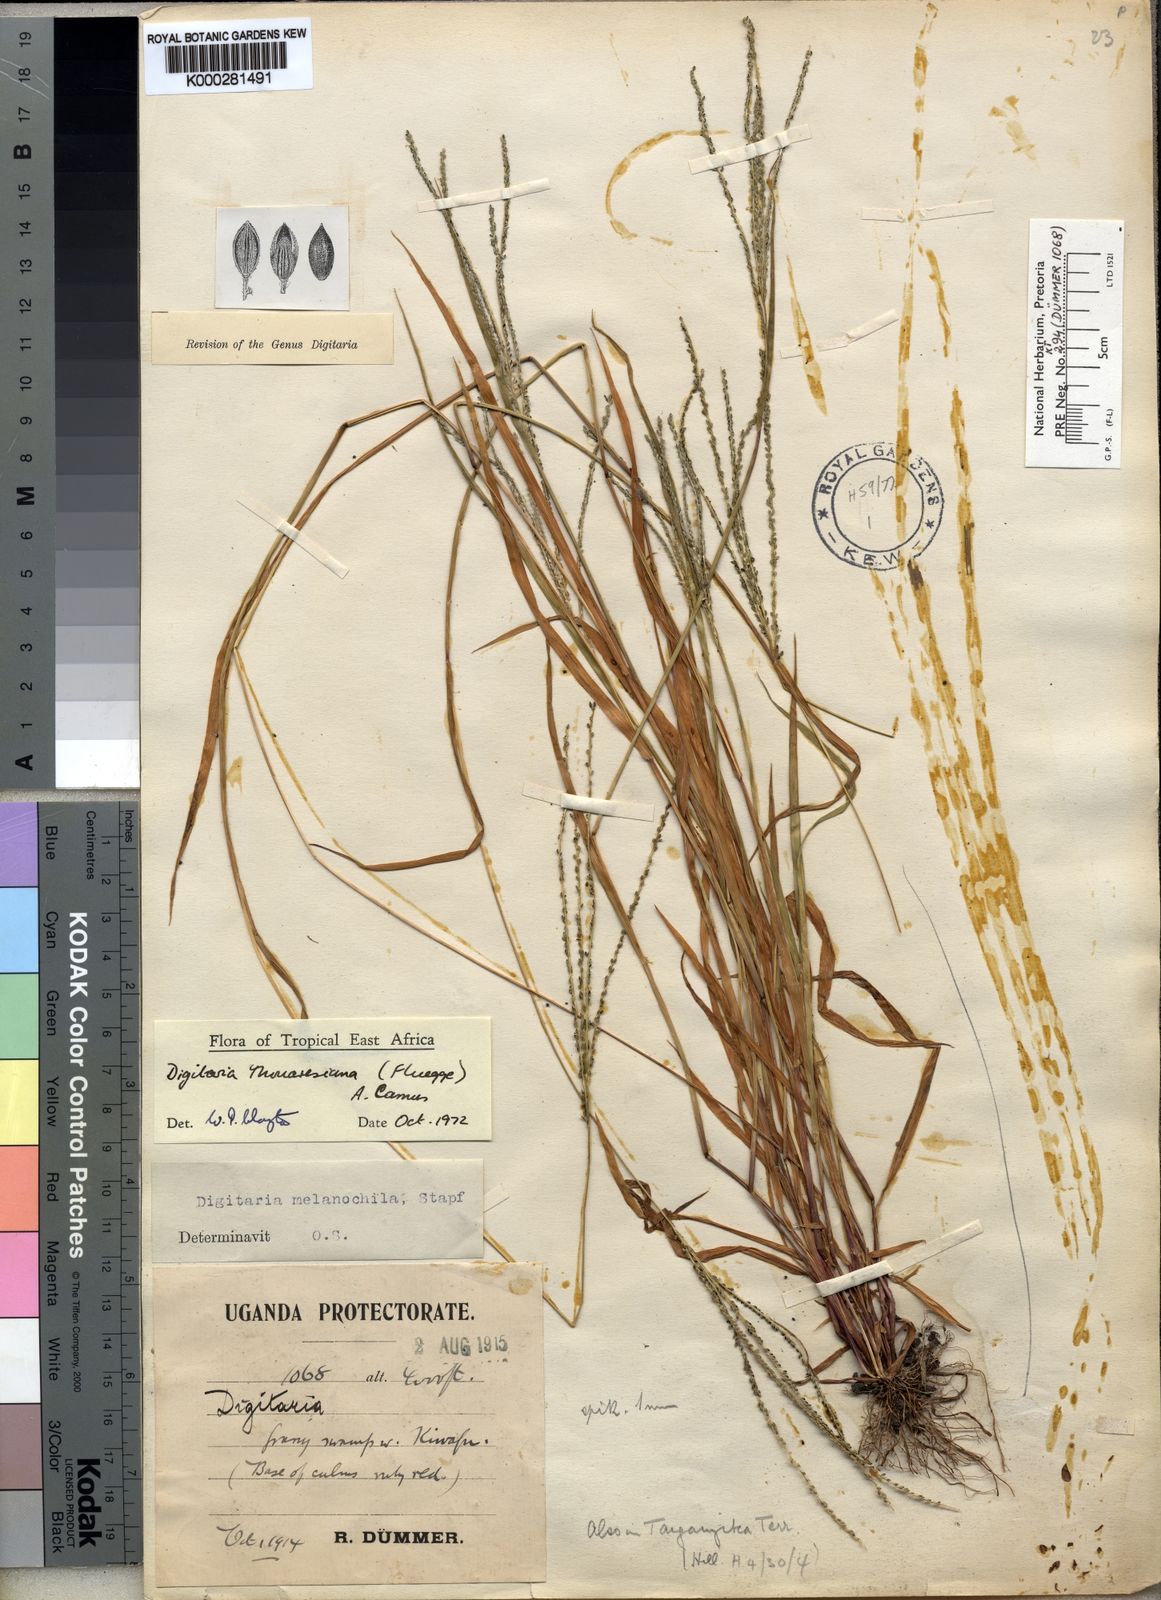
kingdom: Plantae
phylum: Tracheophyta
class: Liliopsida
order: Poales
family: Poaceae
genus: Digitaria
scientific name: Digitaria
